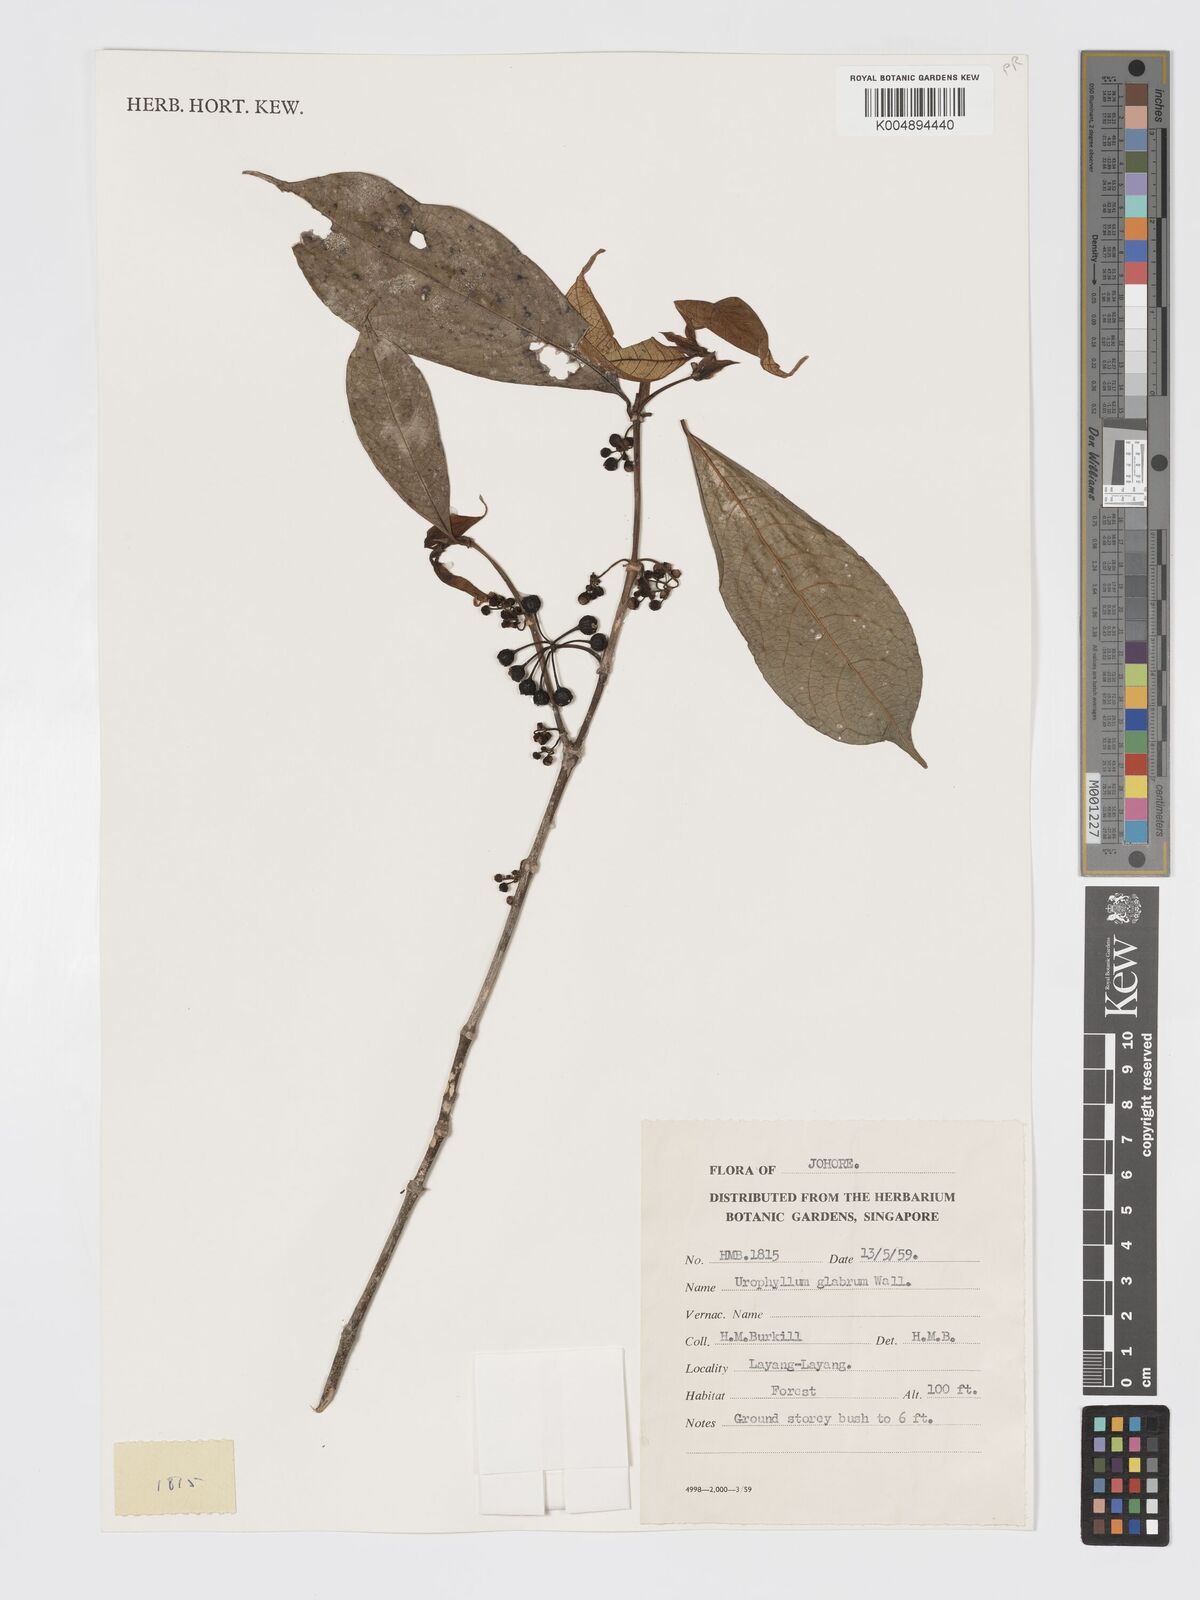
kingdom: Plantae
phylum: Tracheophyta
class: Magnoliopsida
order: Gentianales
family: Rubiaceae
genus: Urophyllum
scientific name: Urophyllum griffithianum
